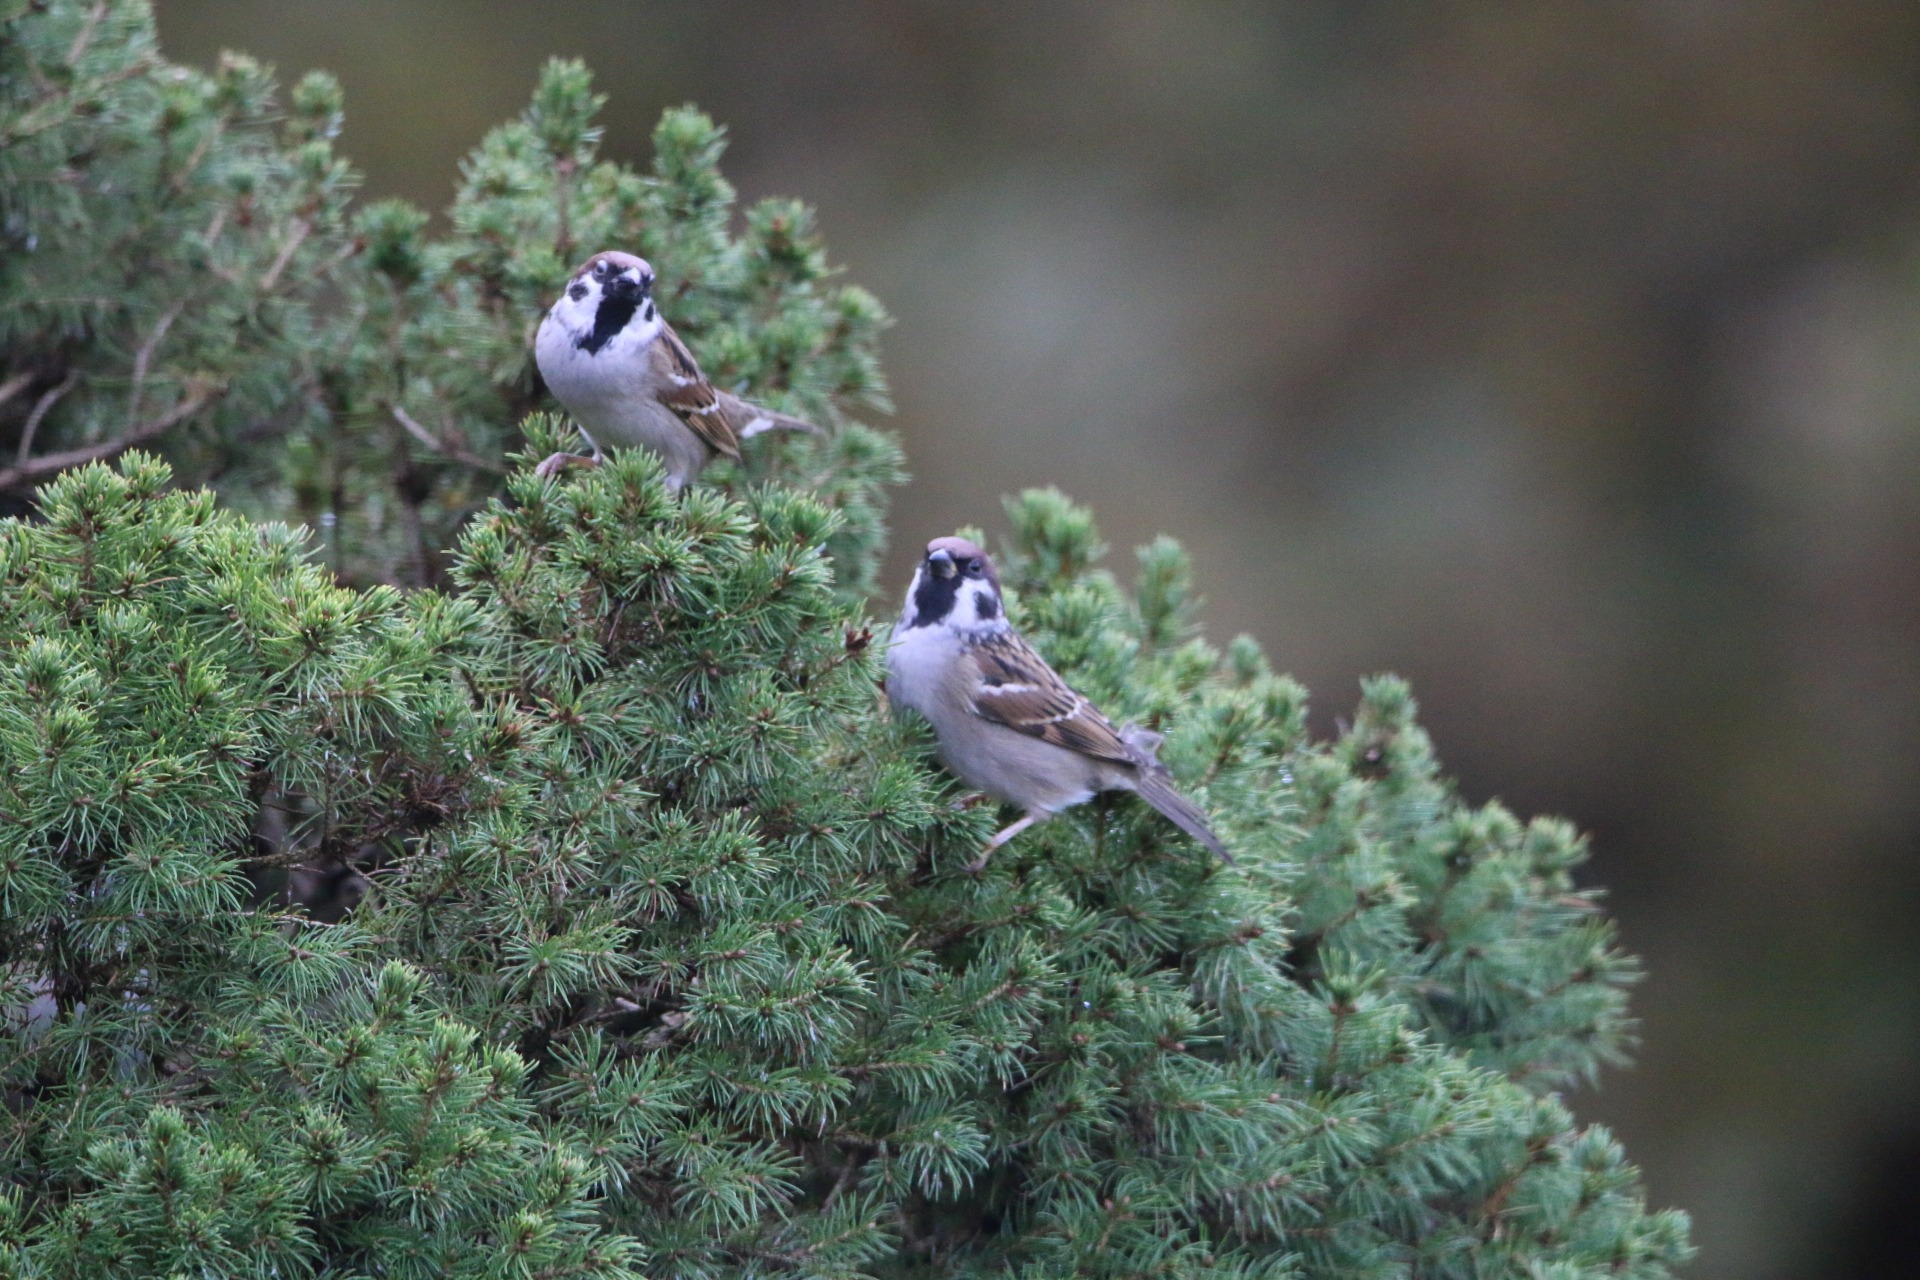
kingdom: Animalia
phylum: Chordata
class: Aves
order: Passeriformes
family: Passeridae
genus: Passer
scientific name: Passer montanus
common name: Skovspurv
